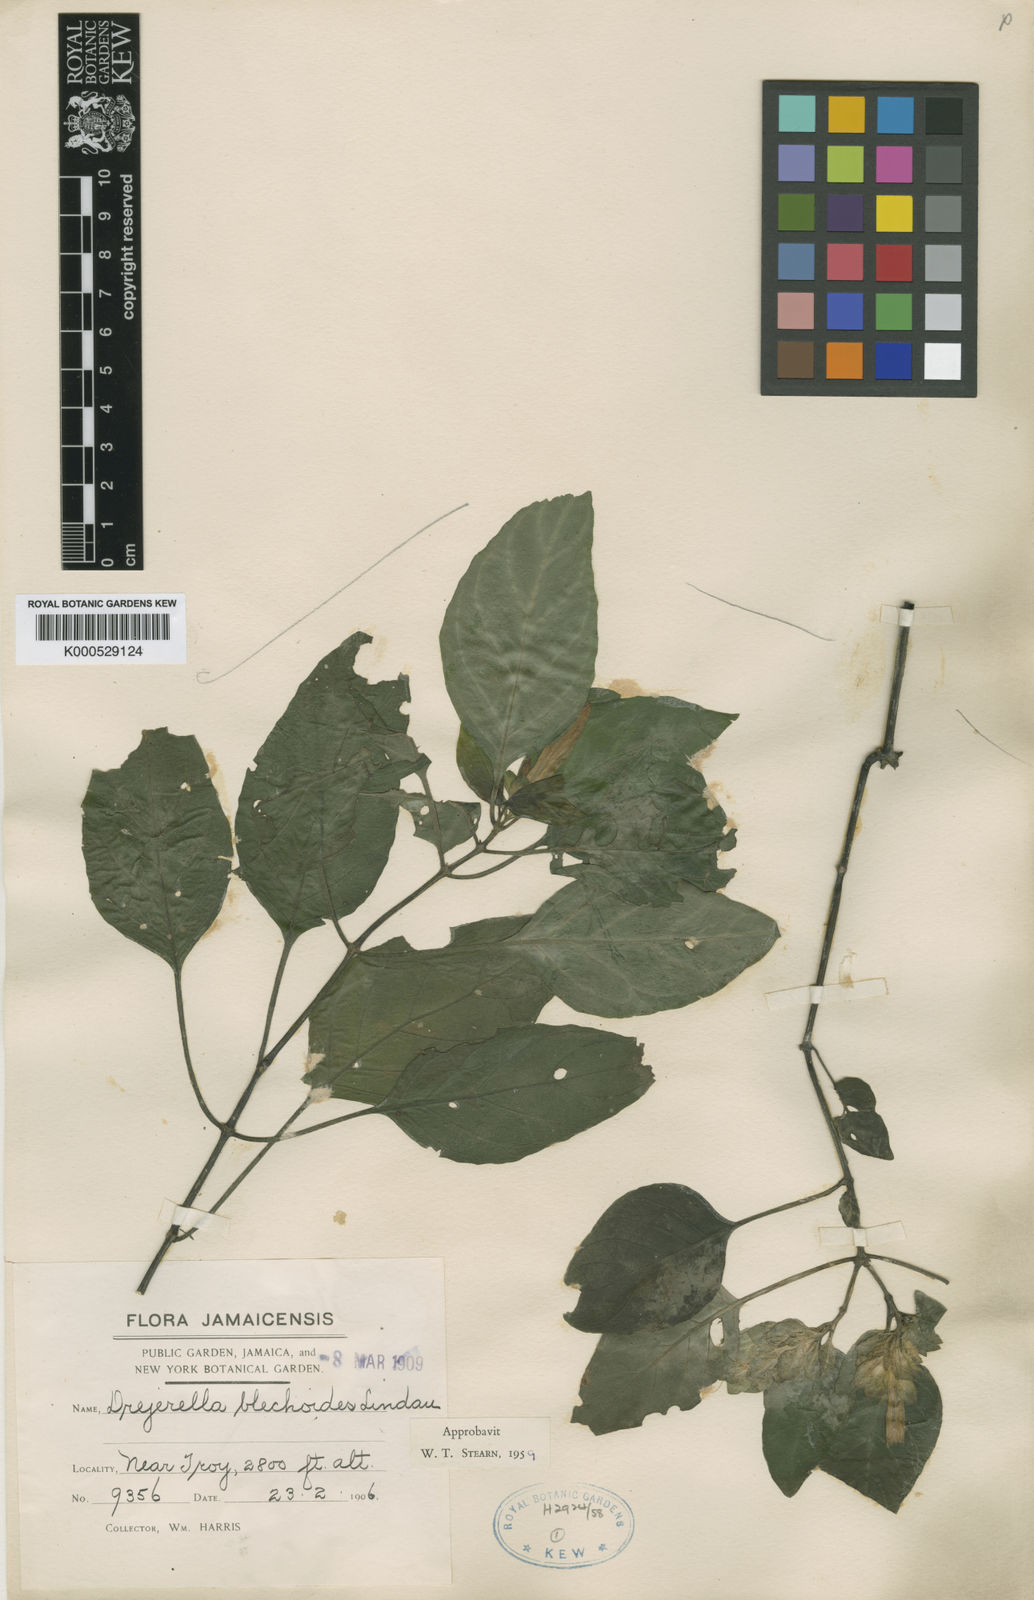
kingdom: Plantae
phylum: Tracheophyta
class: Magnoliopsida
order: Lamiales
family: Acanthaceae
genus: Justicia
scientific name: Justicia blechoides
